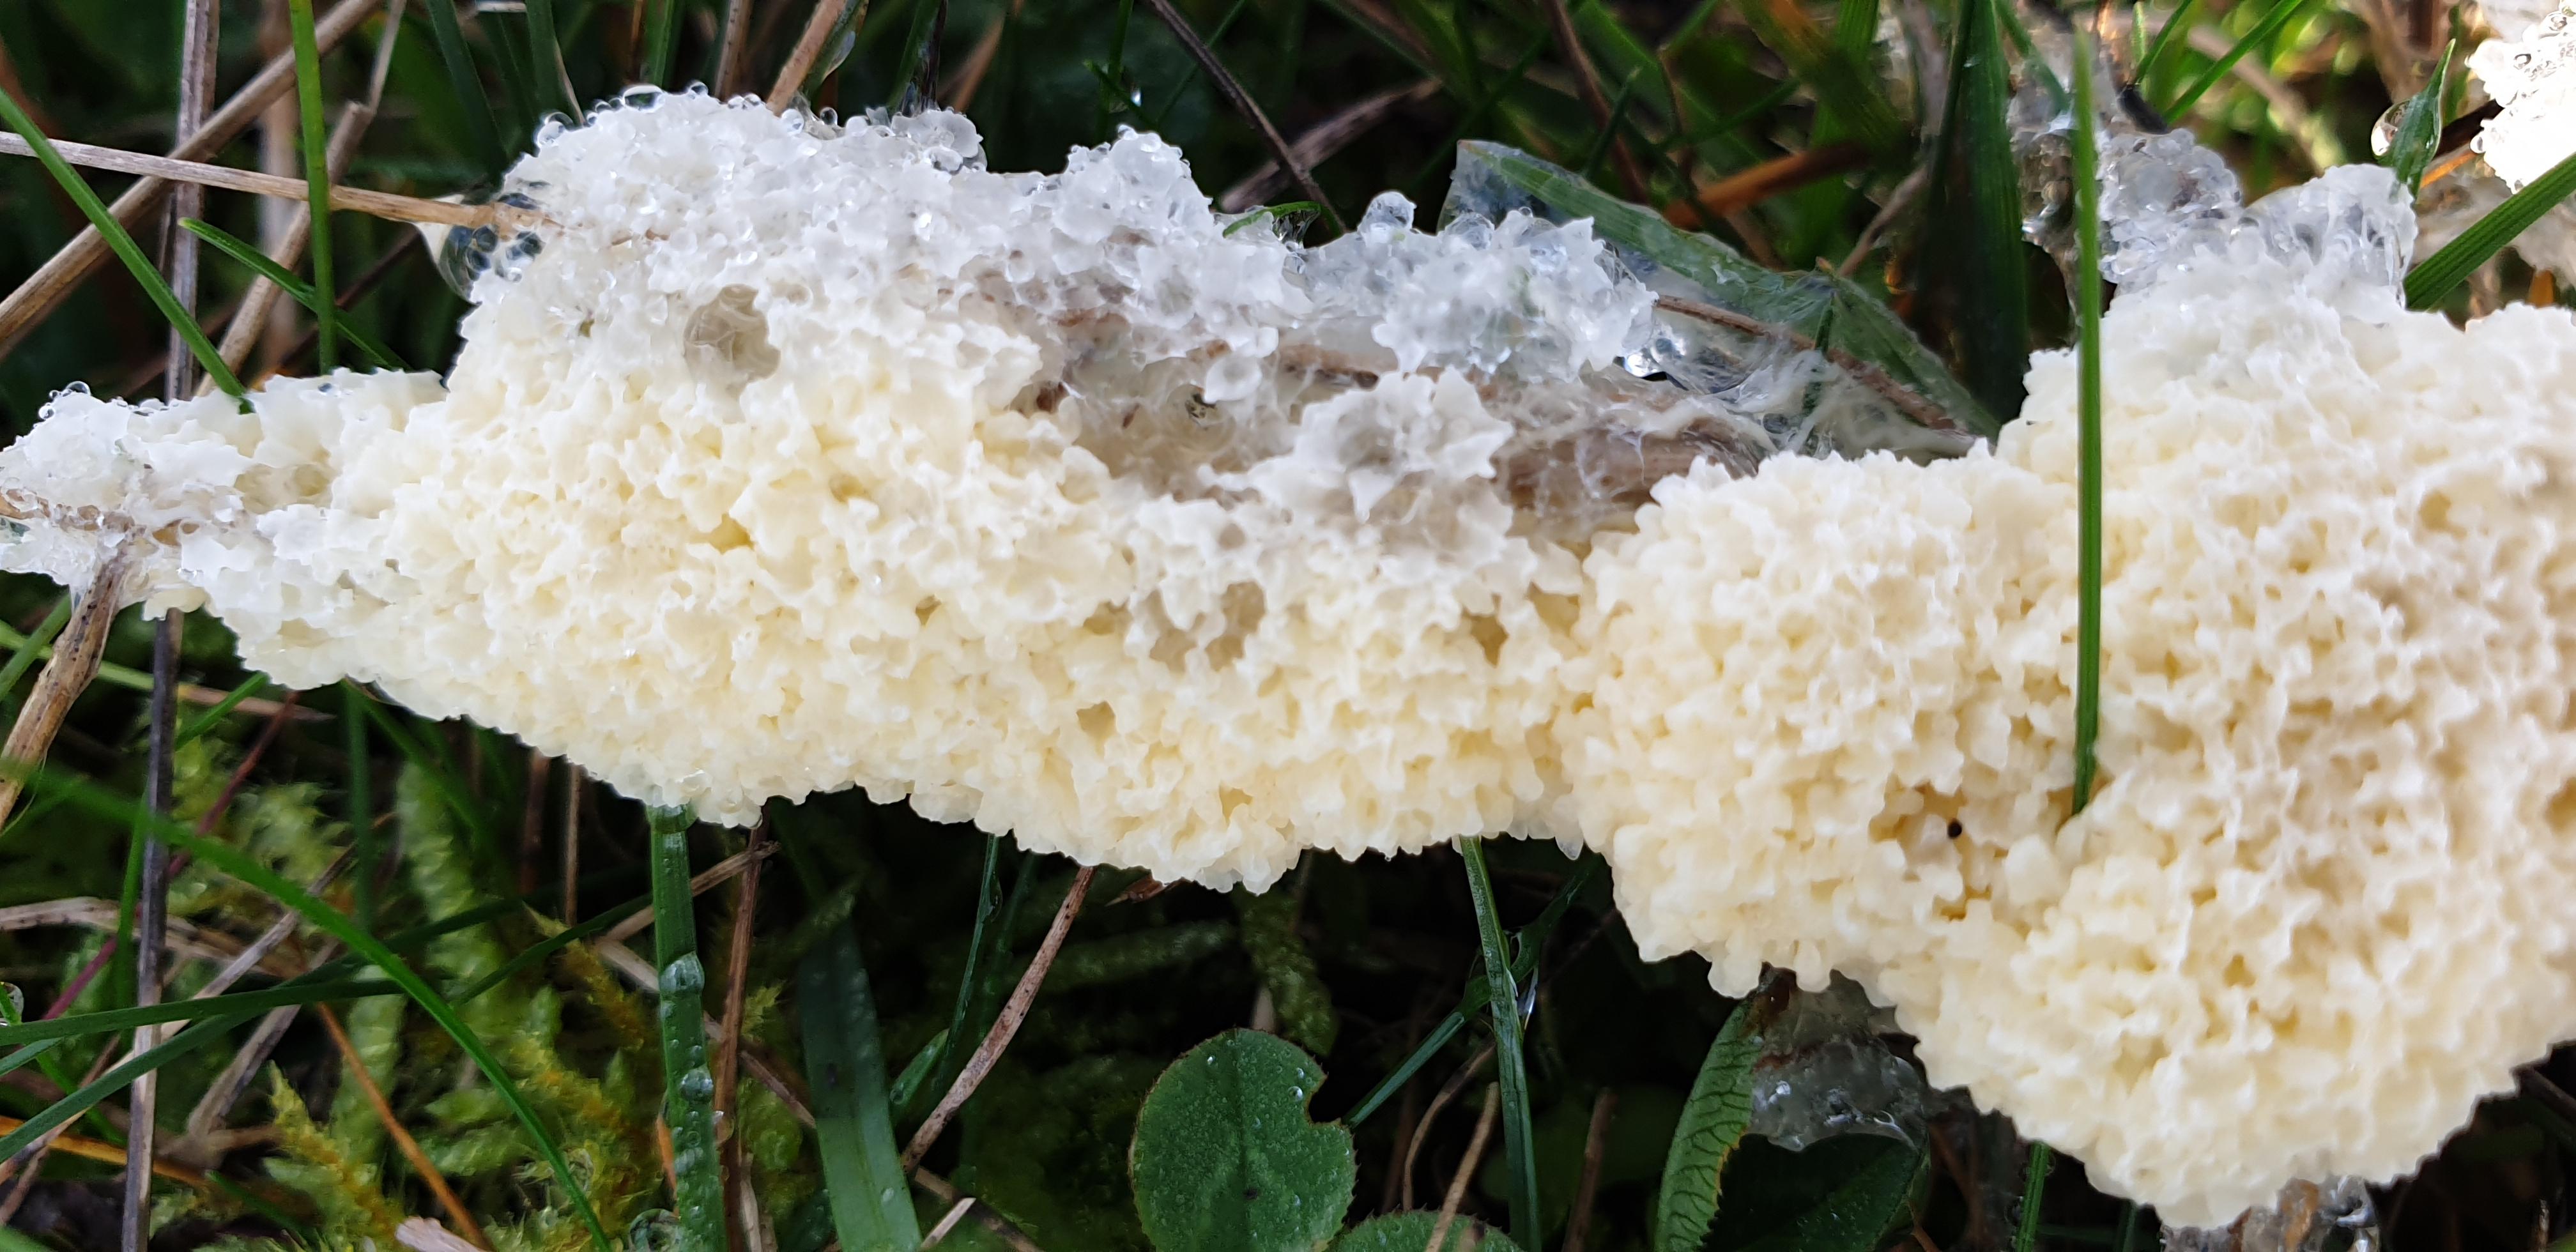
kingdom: Protozoa
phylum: Mycetozoa
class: Myxomycetes
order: Physarales
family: Physaraceae
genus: Didymium
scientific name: Didymium
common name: urteskum
